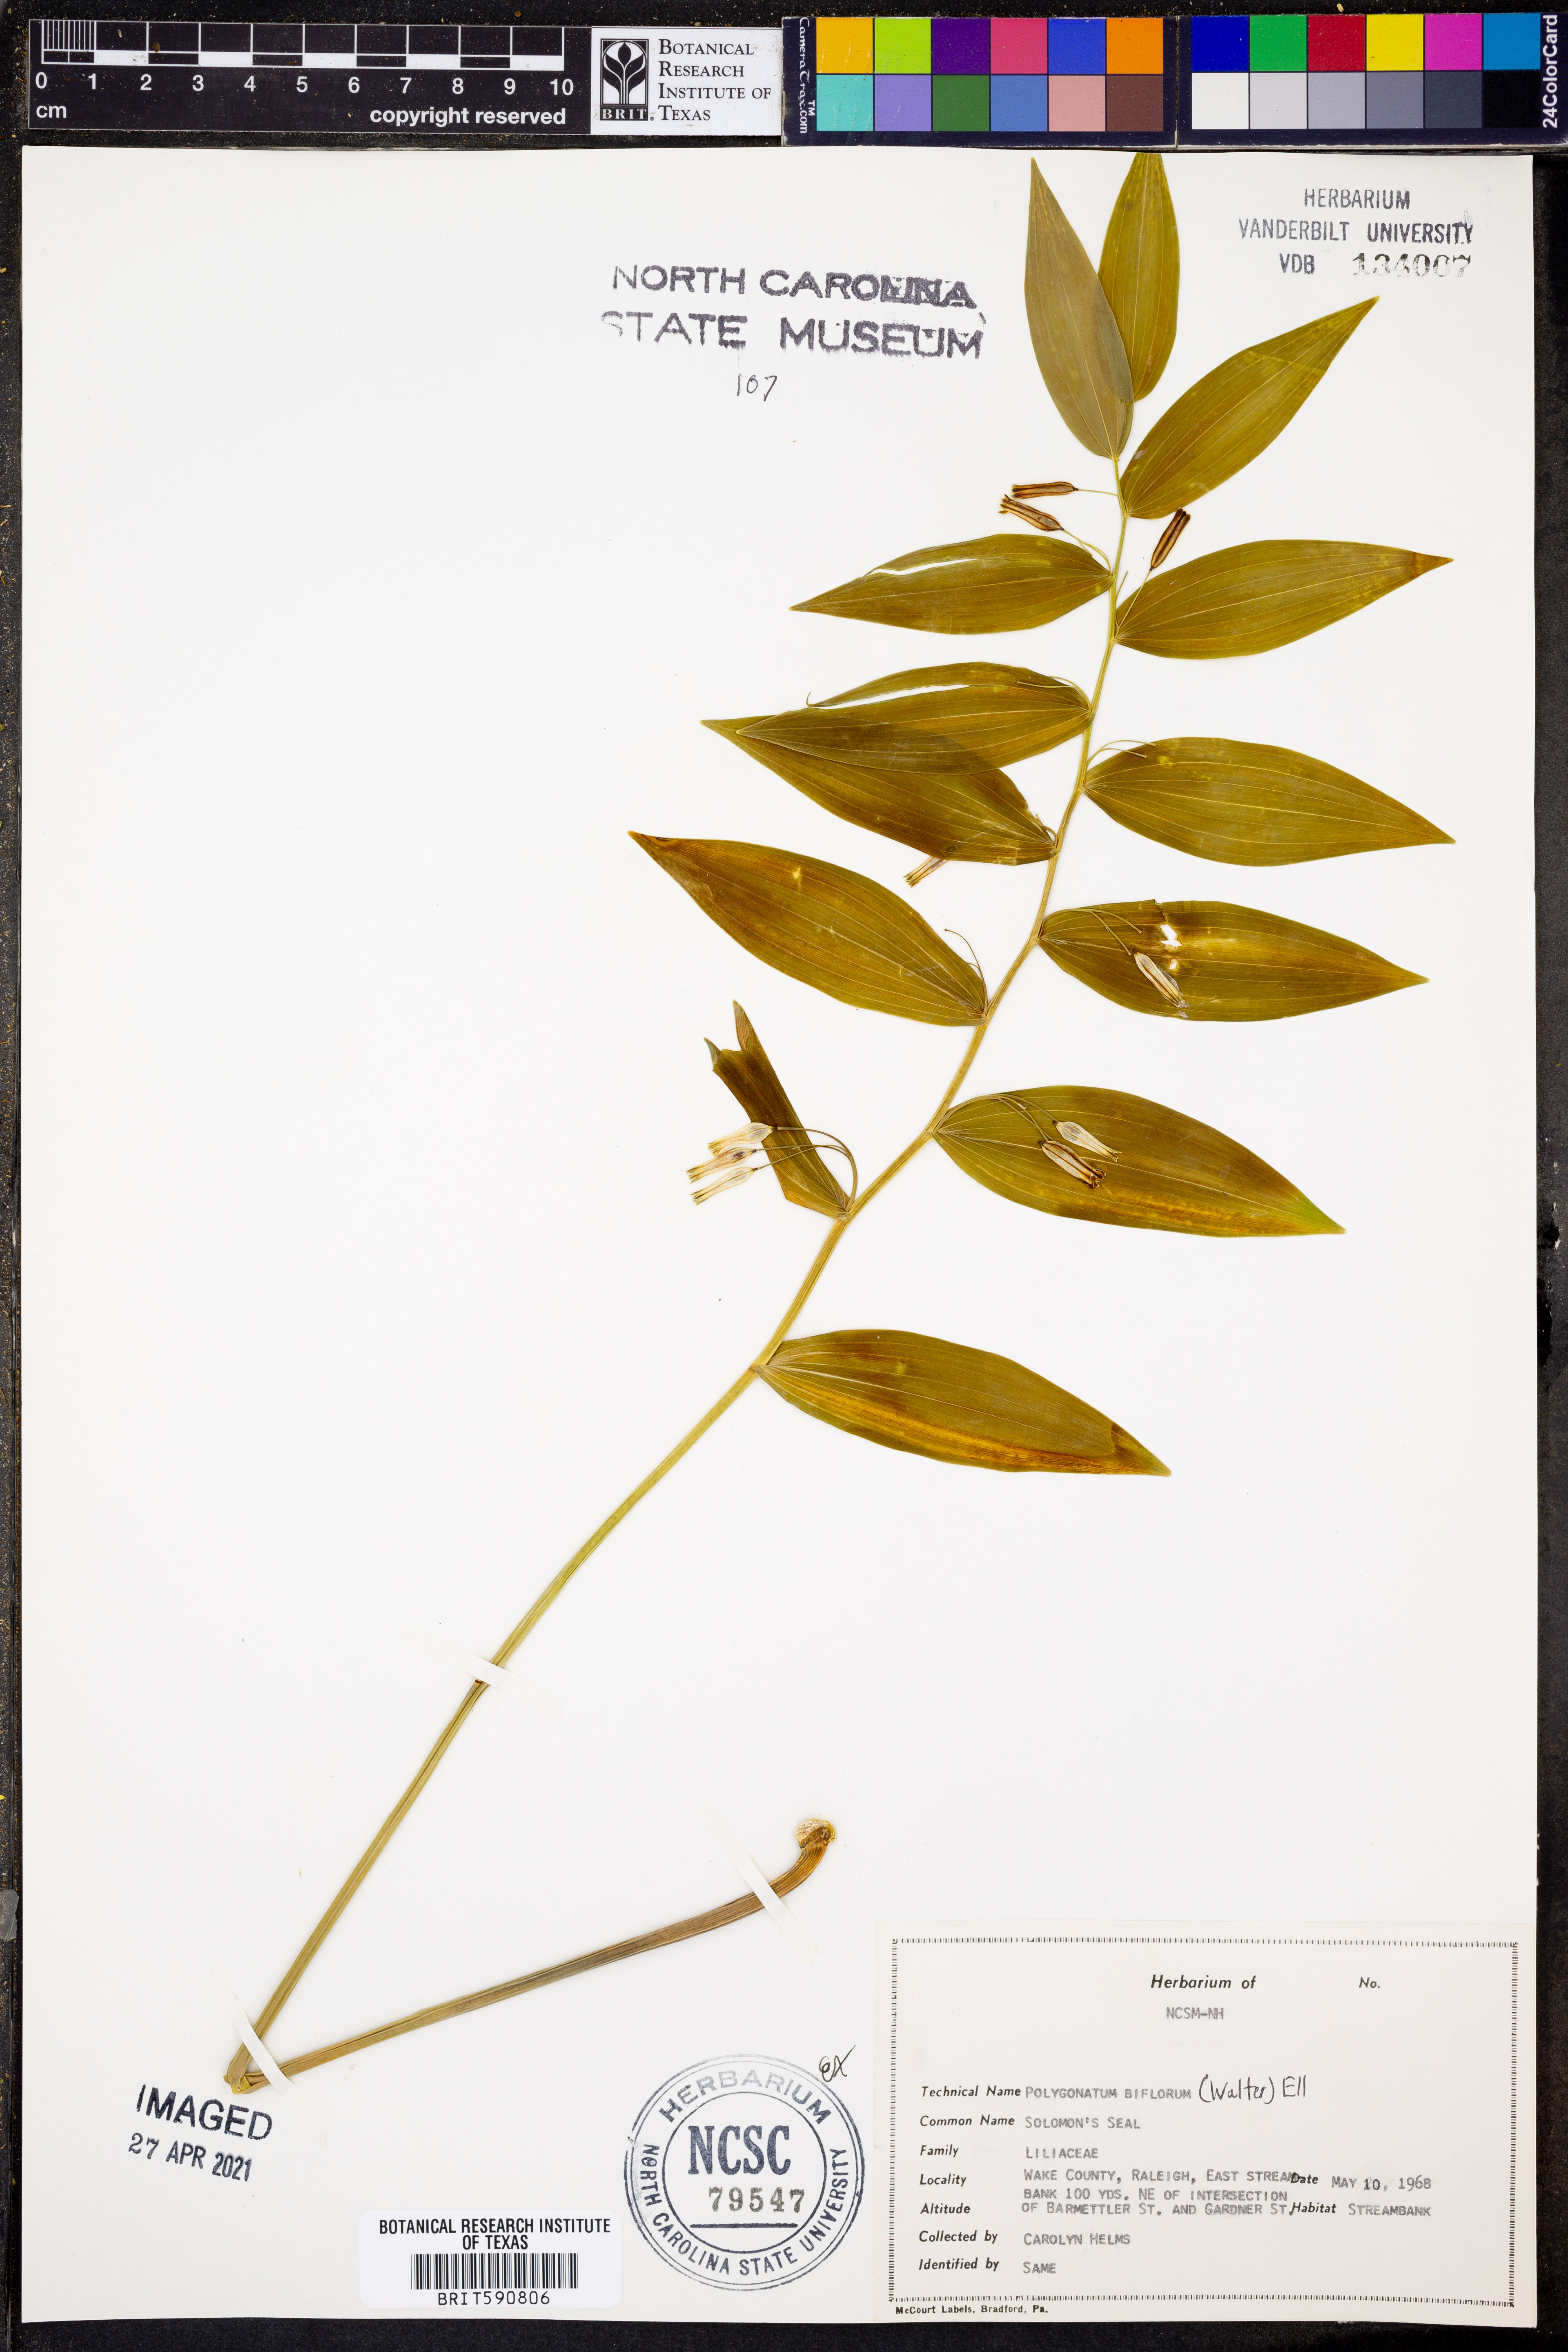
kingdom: Plantae
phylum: Tracheophyta
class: Liliopsida
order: Asparagales
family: Asparagaceae
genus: Polygonatum
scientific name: Polygonatum biflorum
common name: American solomon's-seal
